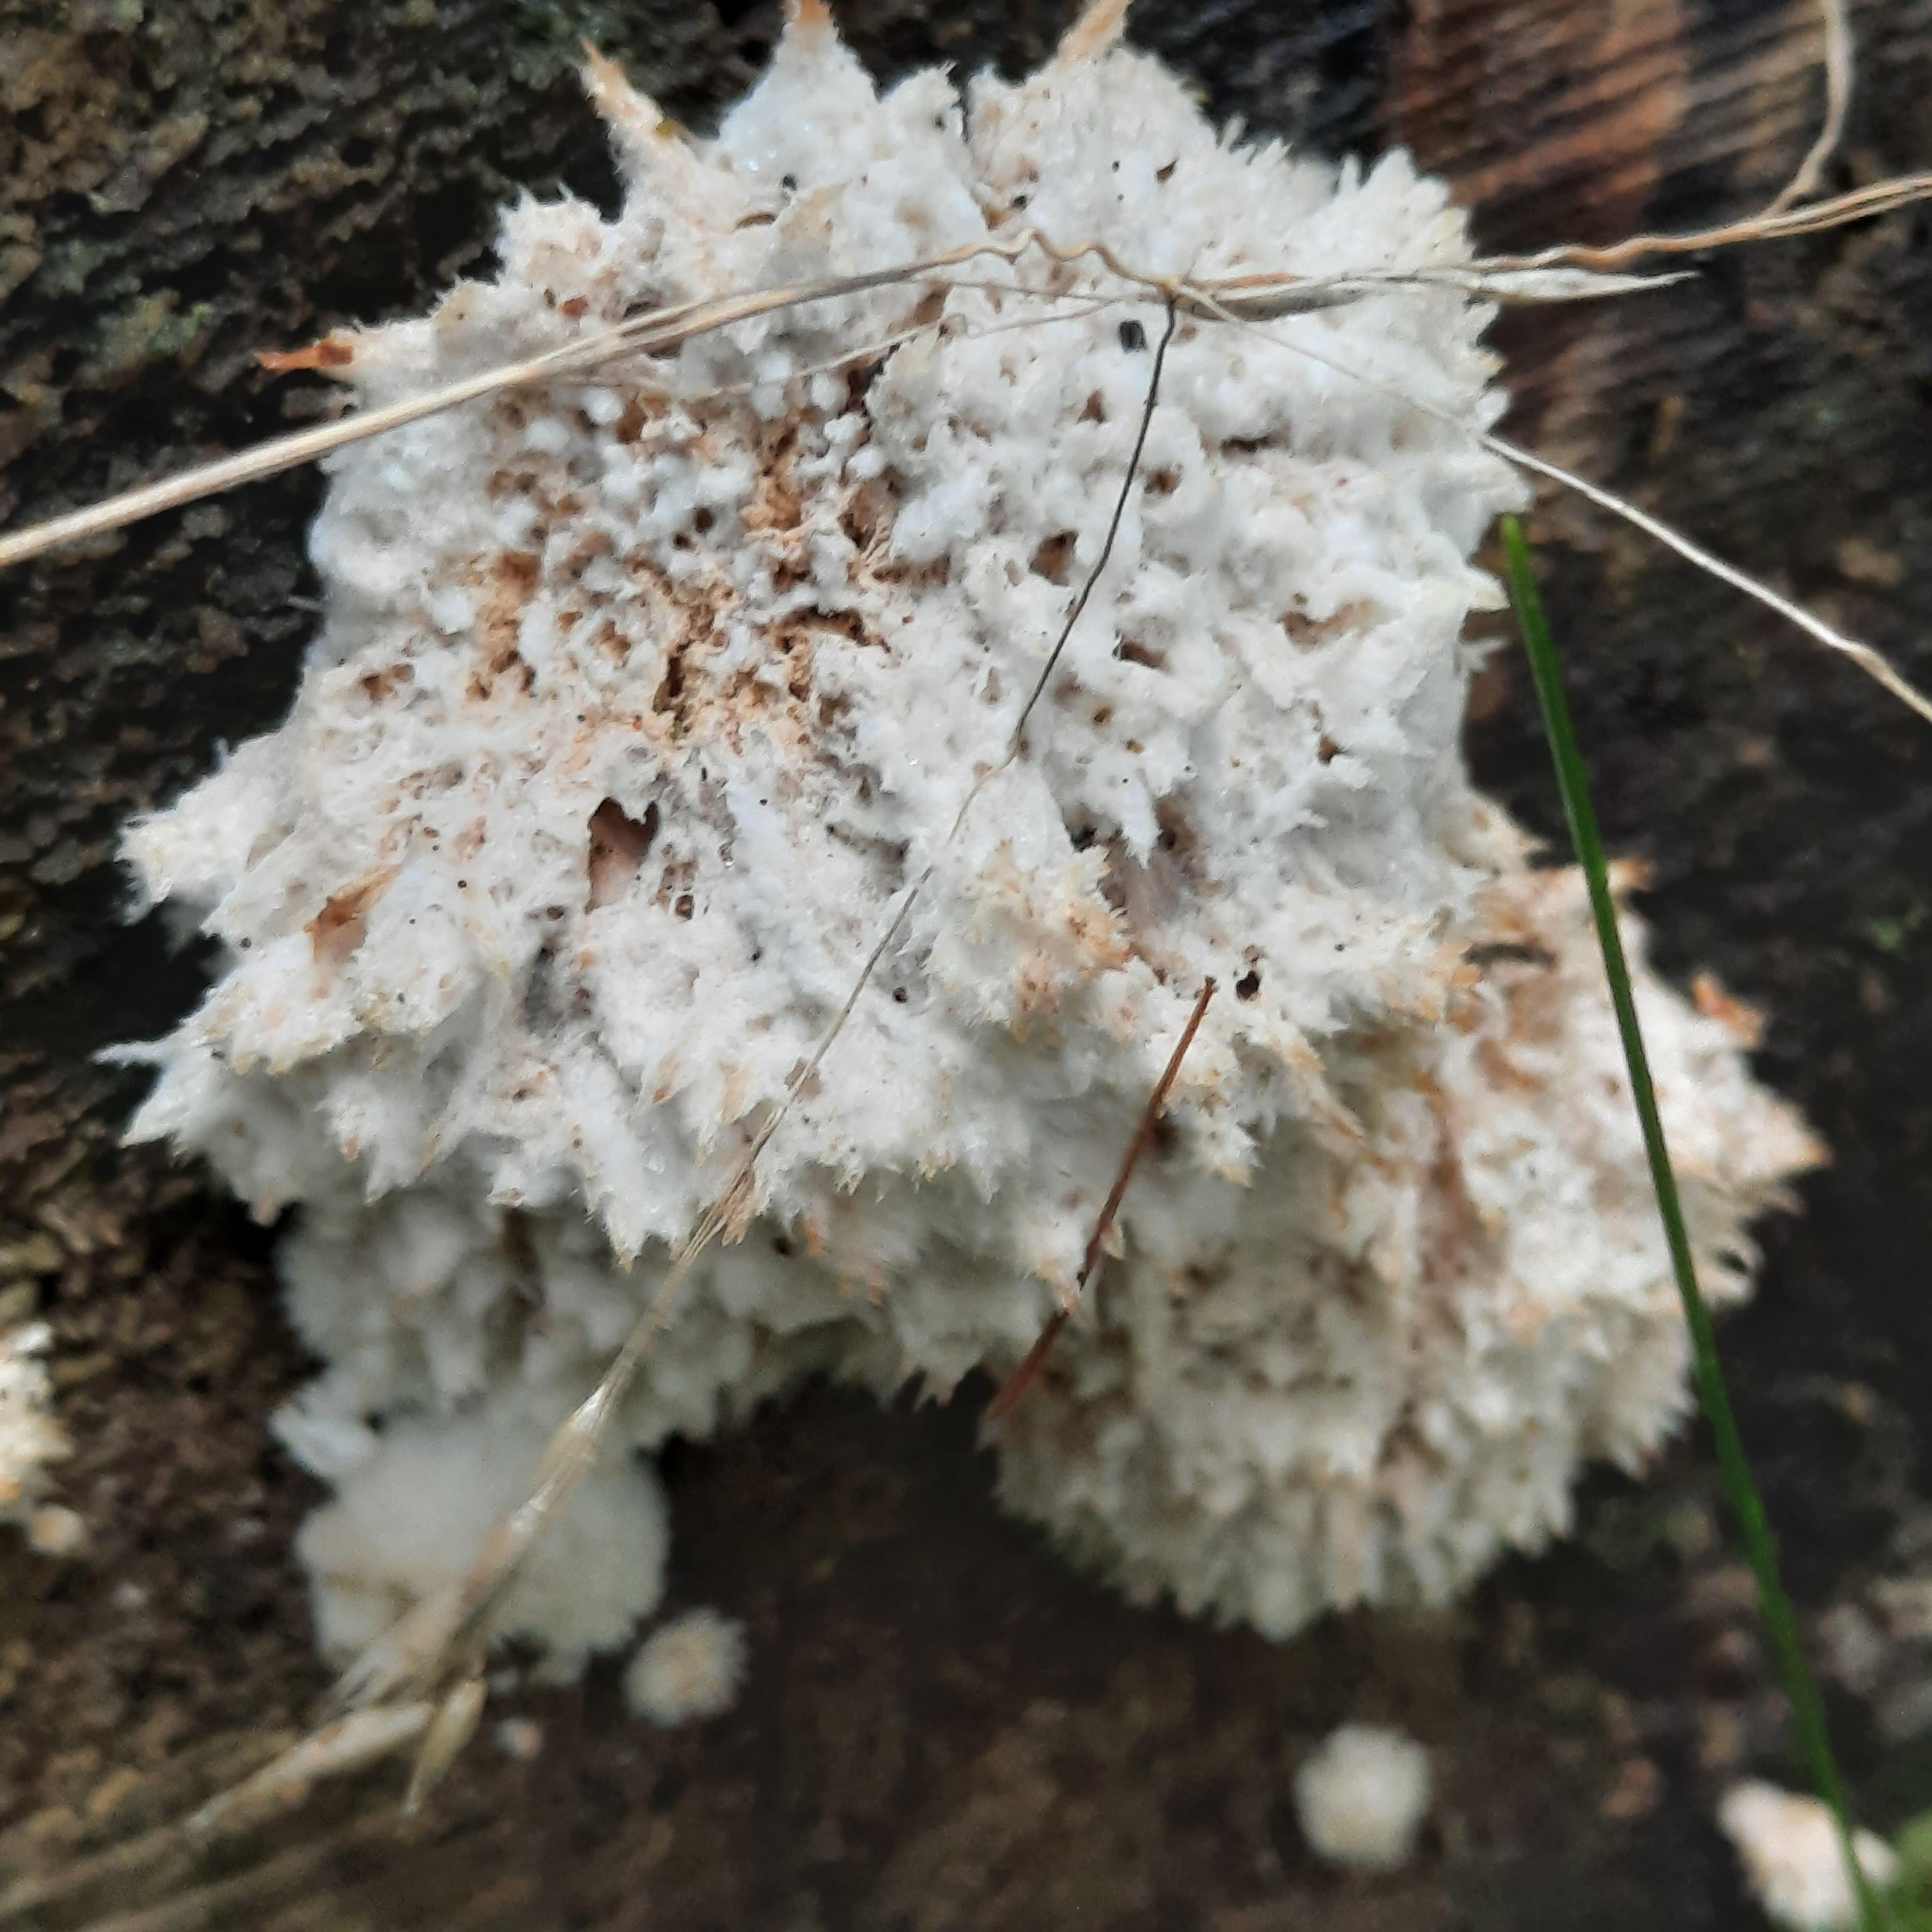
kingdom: Fungi
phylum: Basidiomycota
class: Agaricomycetes
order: Polyporales
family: Dacryobolaceae
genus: Postia
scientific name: Postia ptychogaster
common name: støvende kødporesvamp
